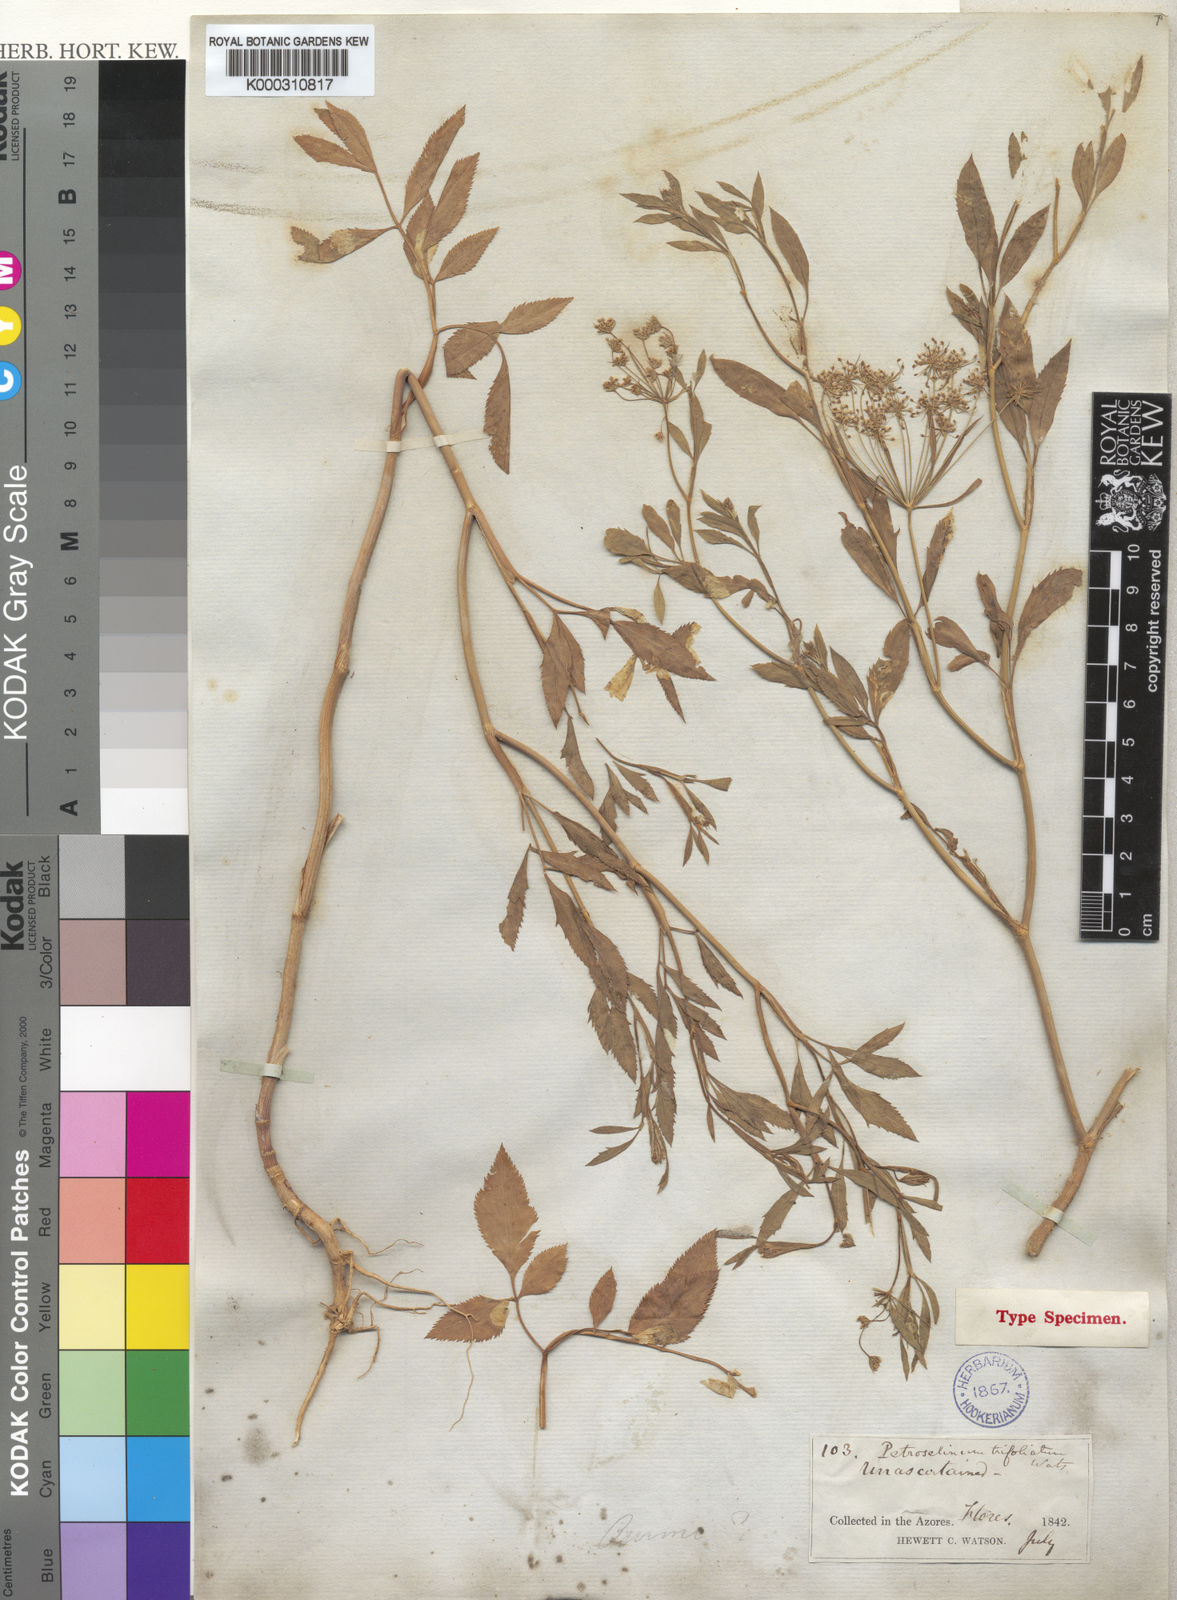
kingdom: Plantae
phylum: Tracheophyta
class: Magnoliopsida
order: Apiales
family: Apiaceae
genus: Ammi
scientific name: Ammi trifoliatum
